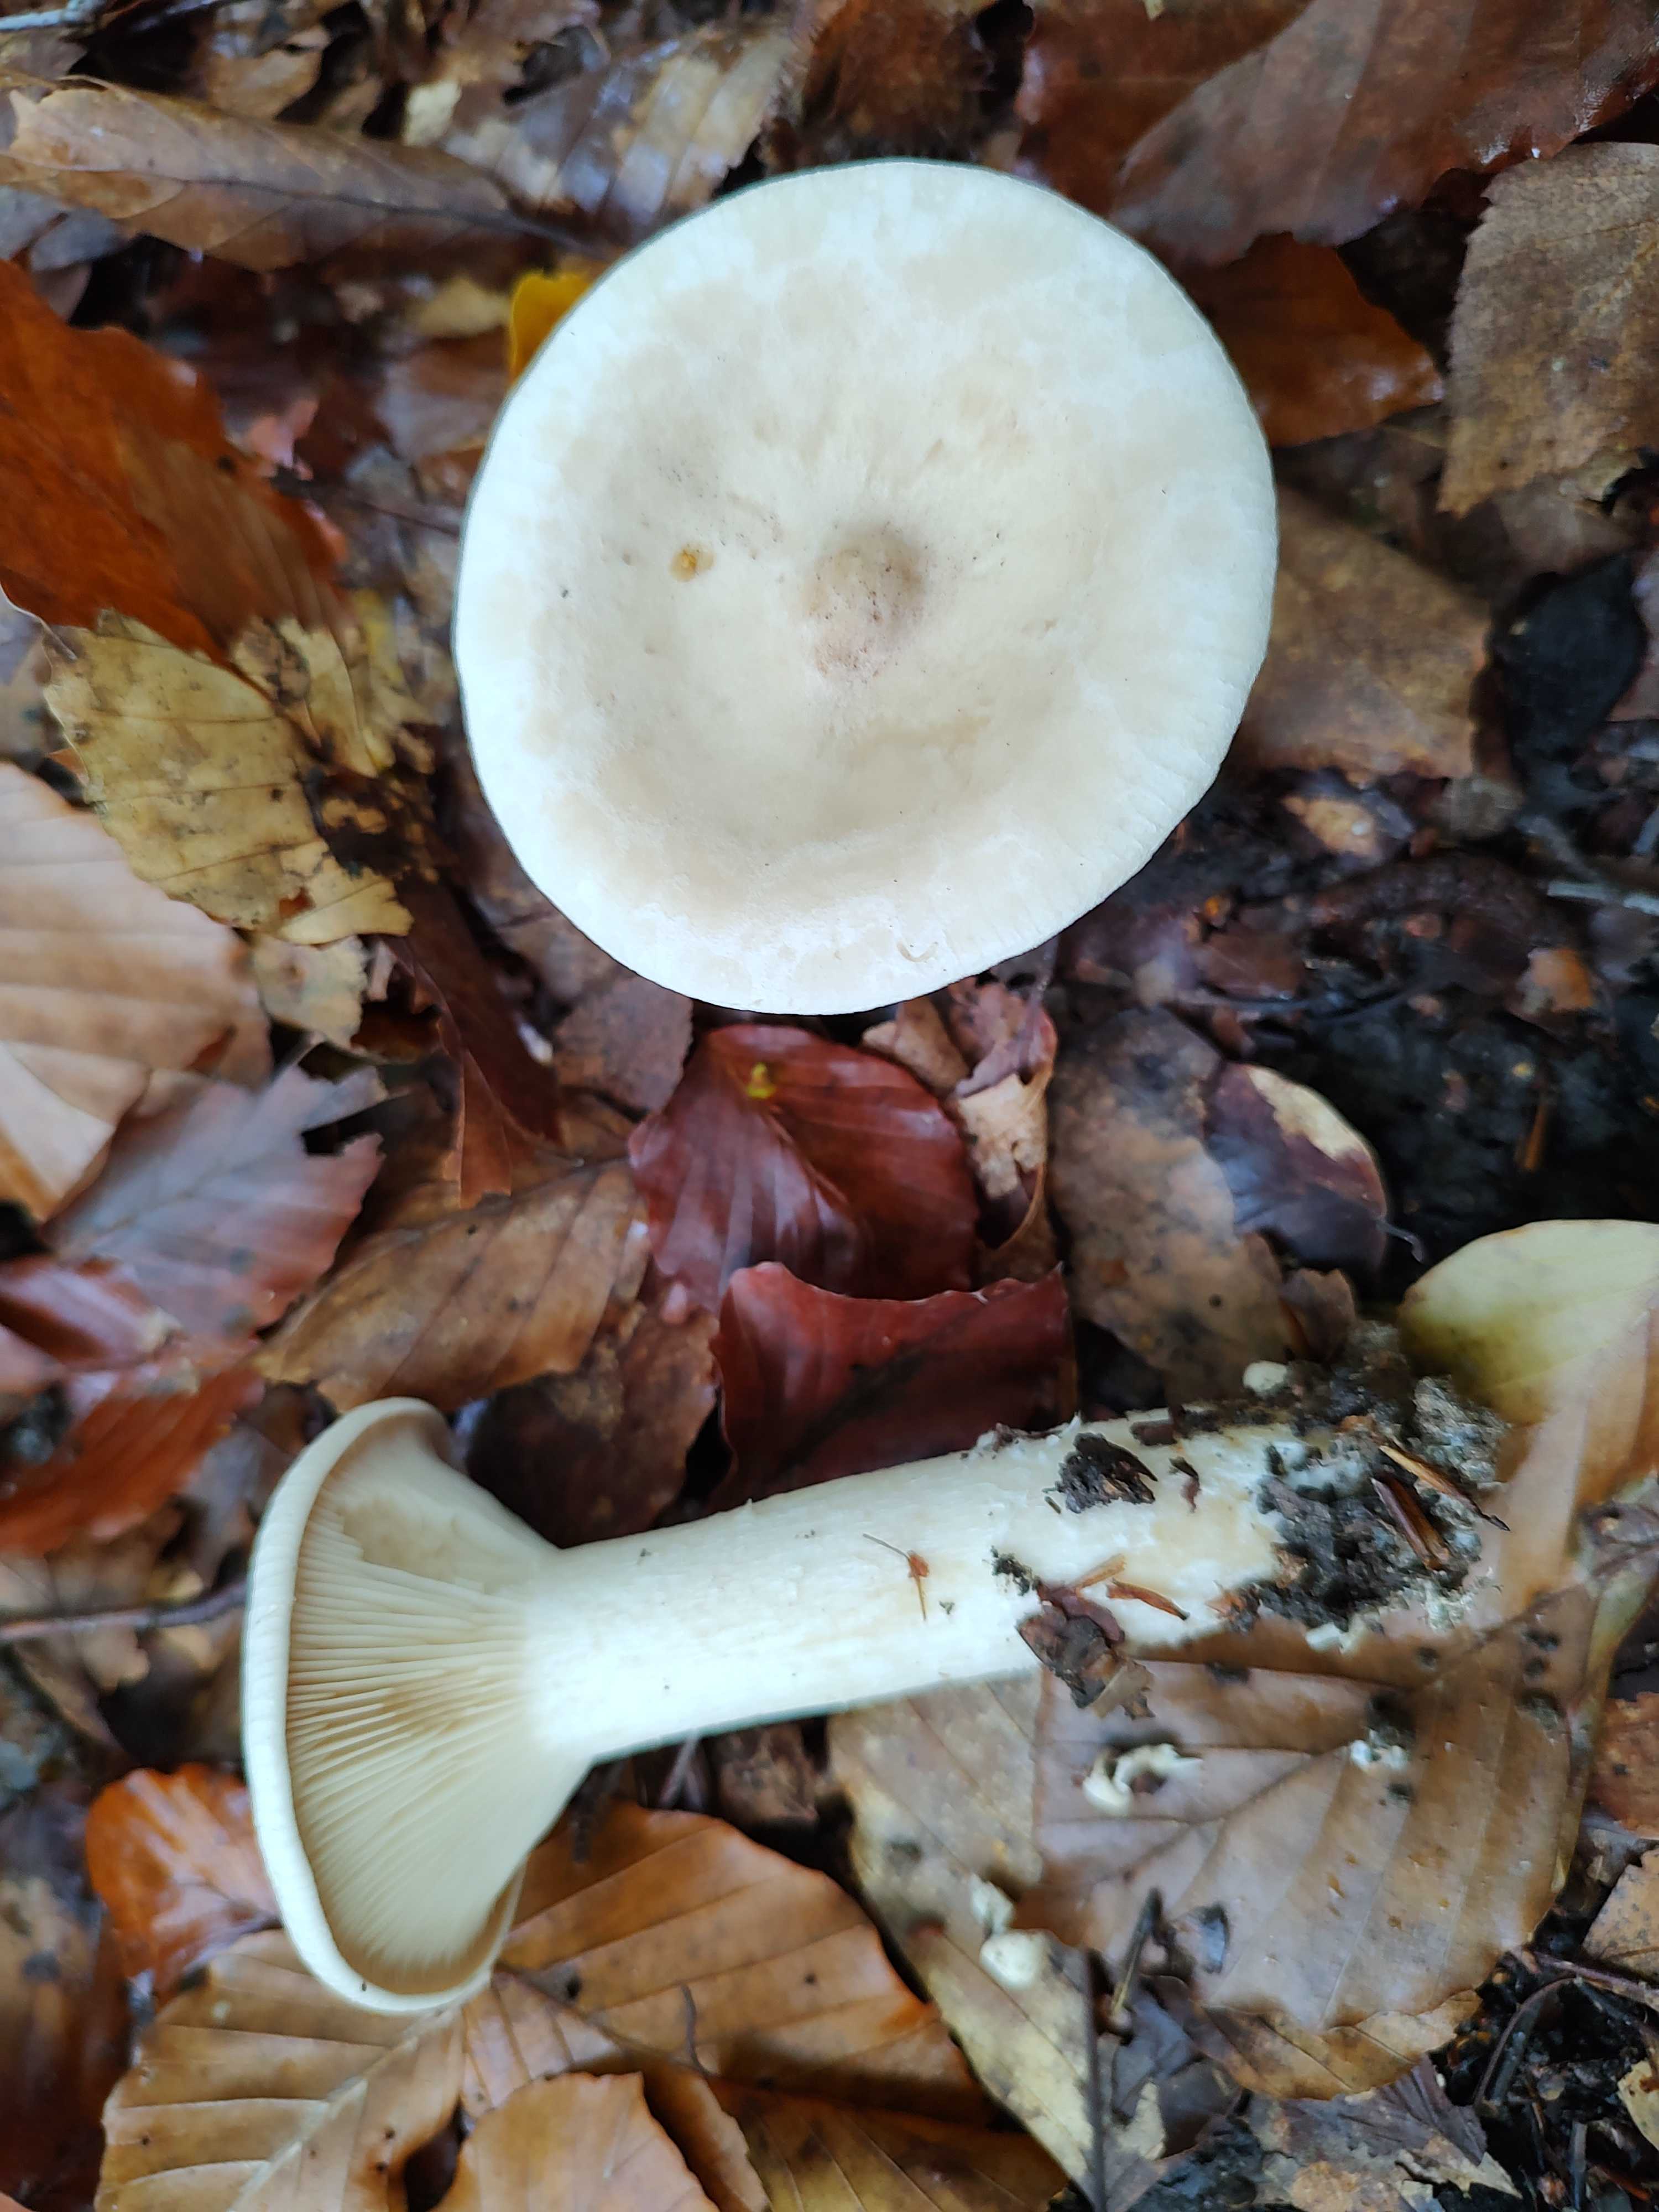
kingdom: Fungi
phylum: Basidiomycota
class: Agaricomycetes
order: Agaricales
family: Tricholomataceae
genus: Infundibulicybe
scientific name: Infundibulicybe geotropa
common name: stor tragthat
